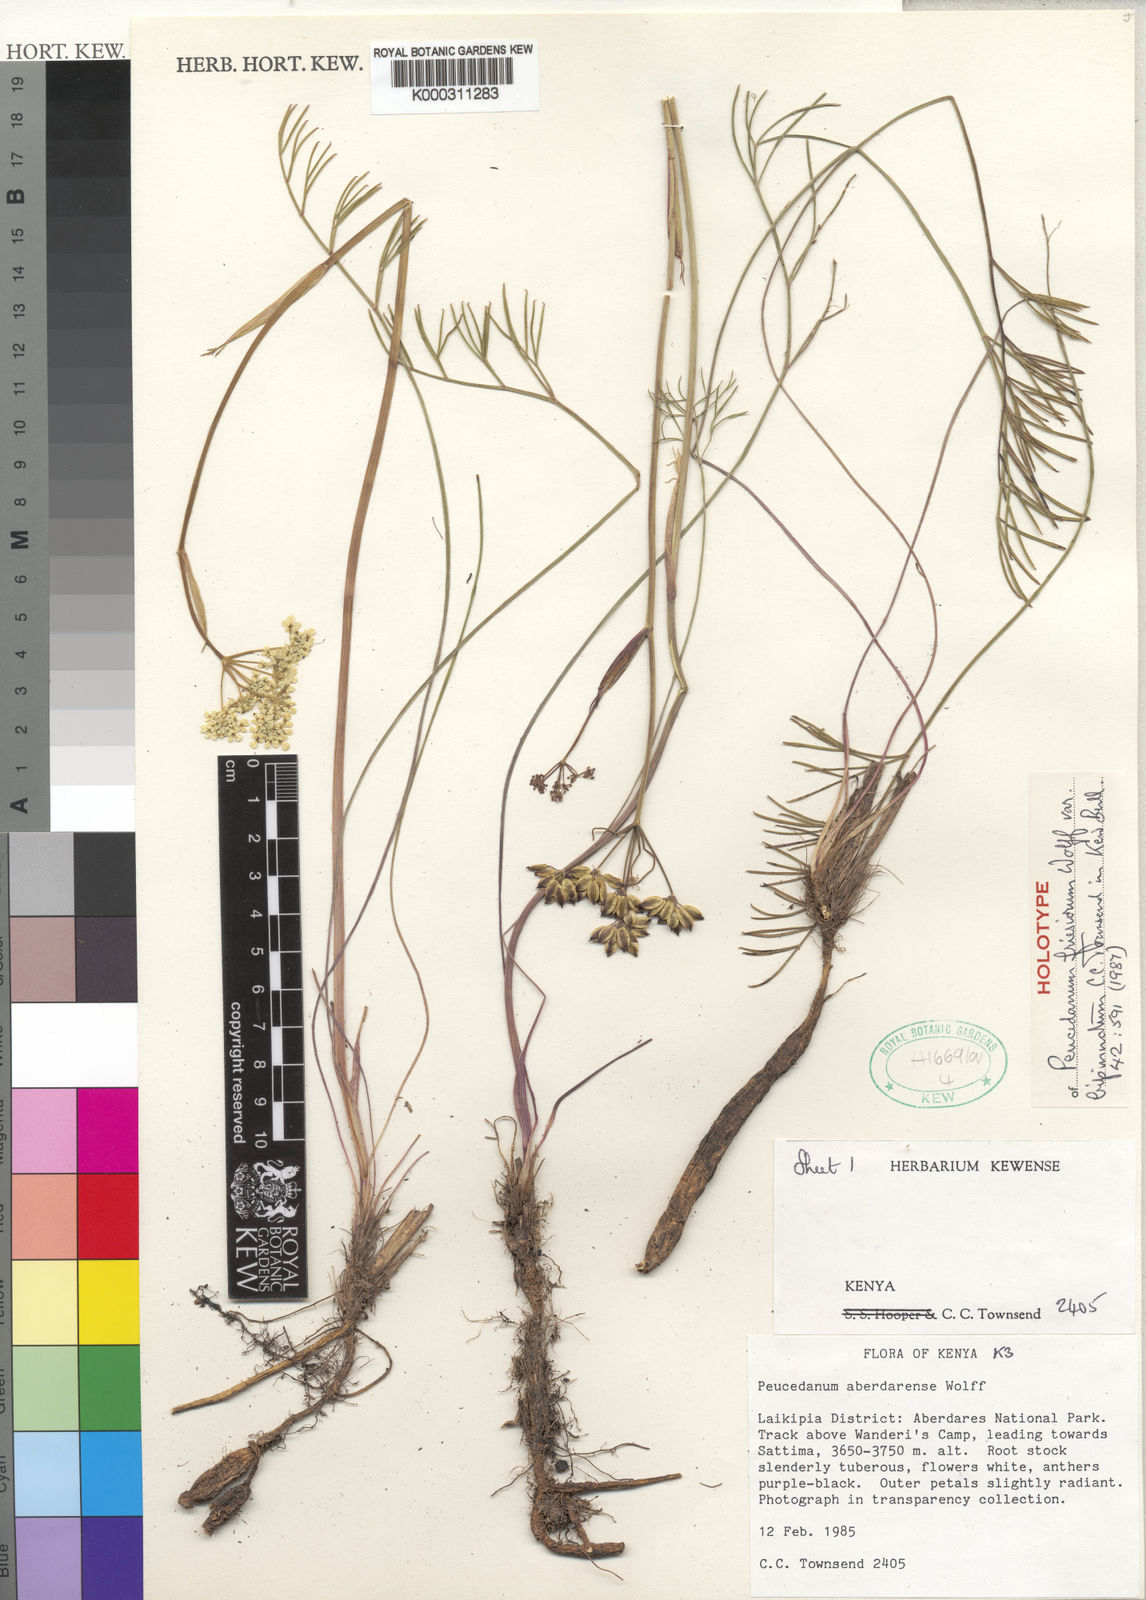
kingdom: Plantae
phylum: Tracheophyta
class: Magnoliopsida
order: Apiales
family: Apiaceae
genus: Afrosciadium
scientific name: Afrosciadium friesiorum
